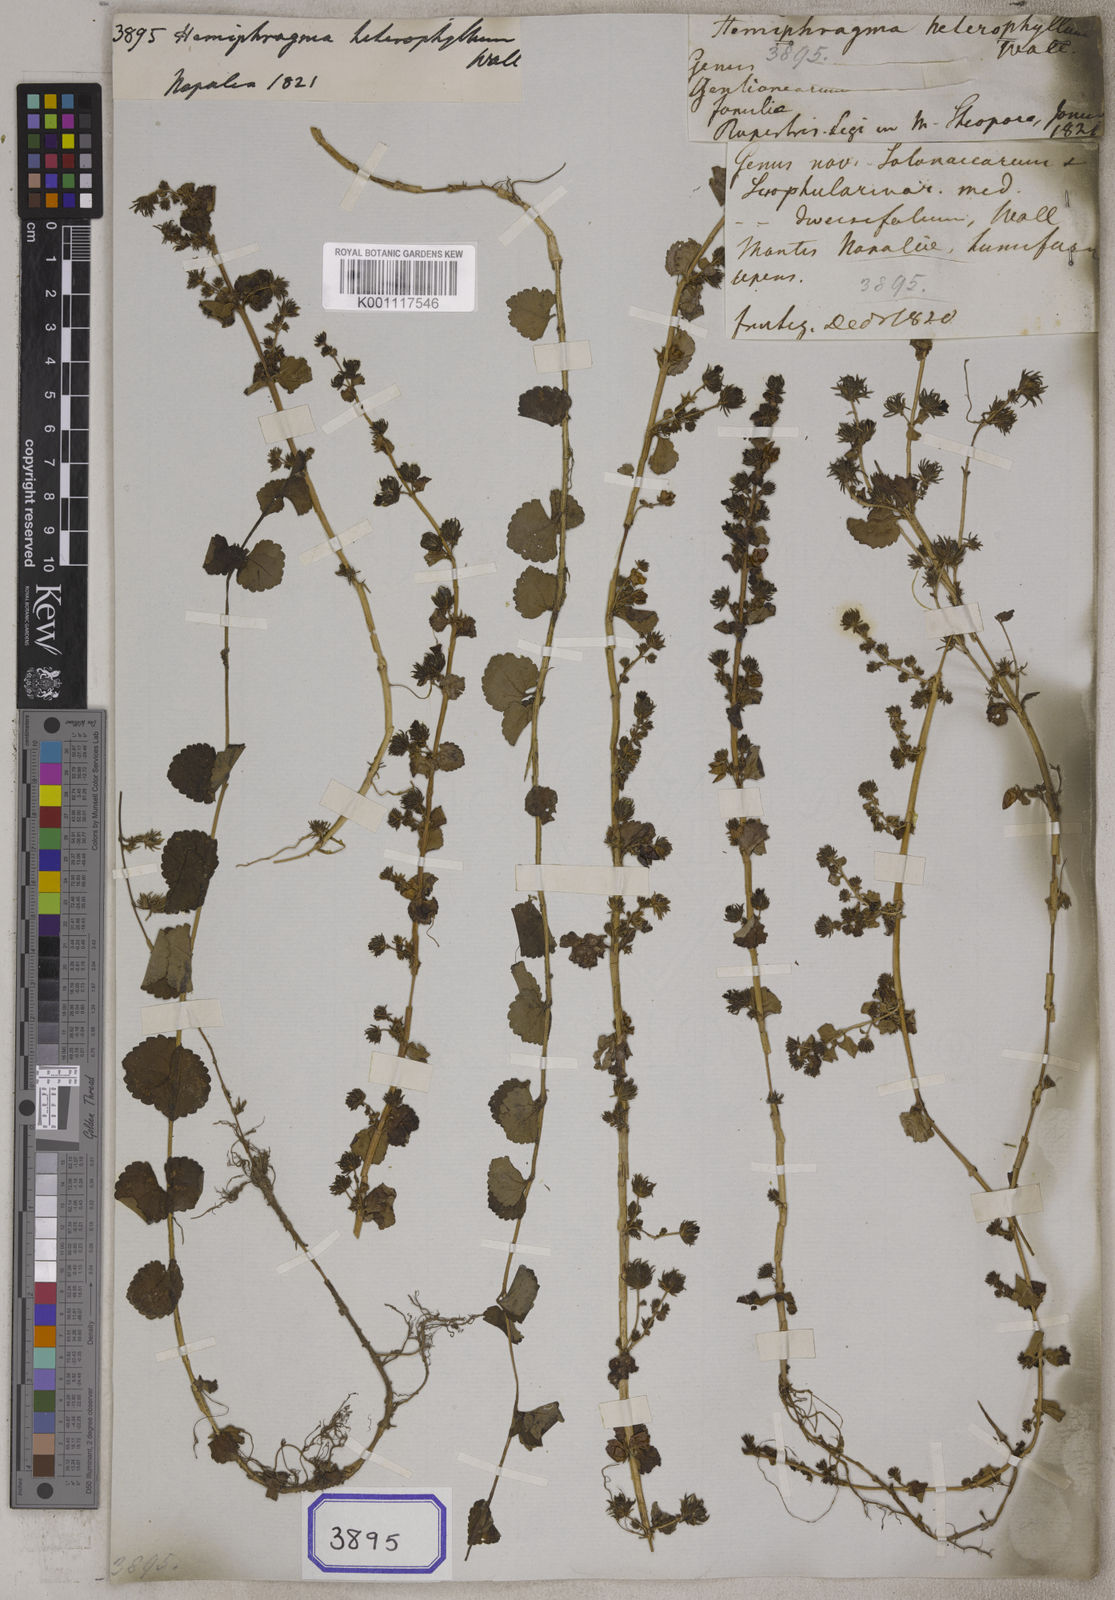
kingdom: Plantae
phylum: Tracheophyta
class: Magnoliopsida
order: Lamiales
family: Plantaginaceae
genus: Hemiphragma
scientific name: Hemiphragma heterophyllum
